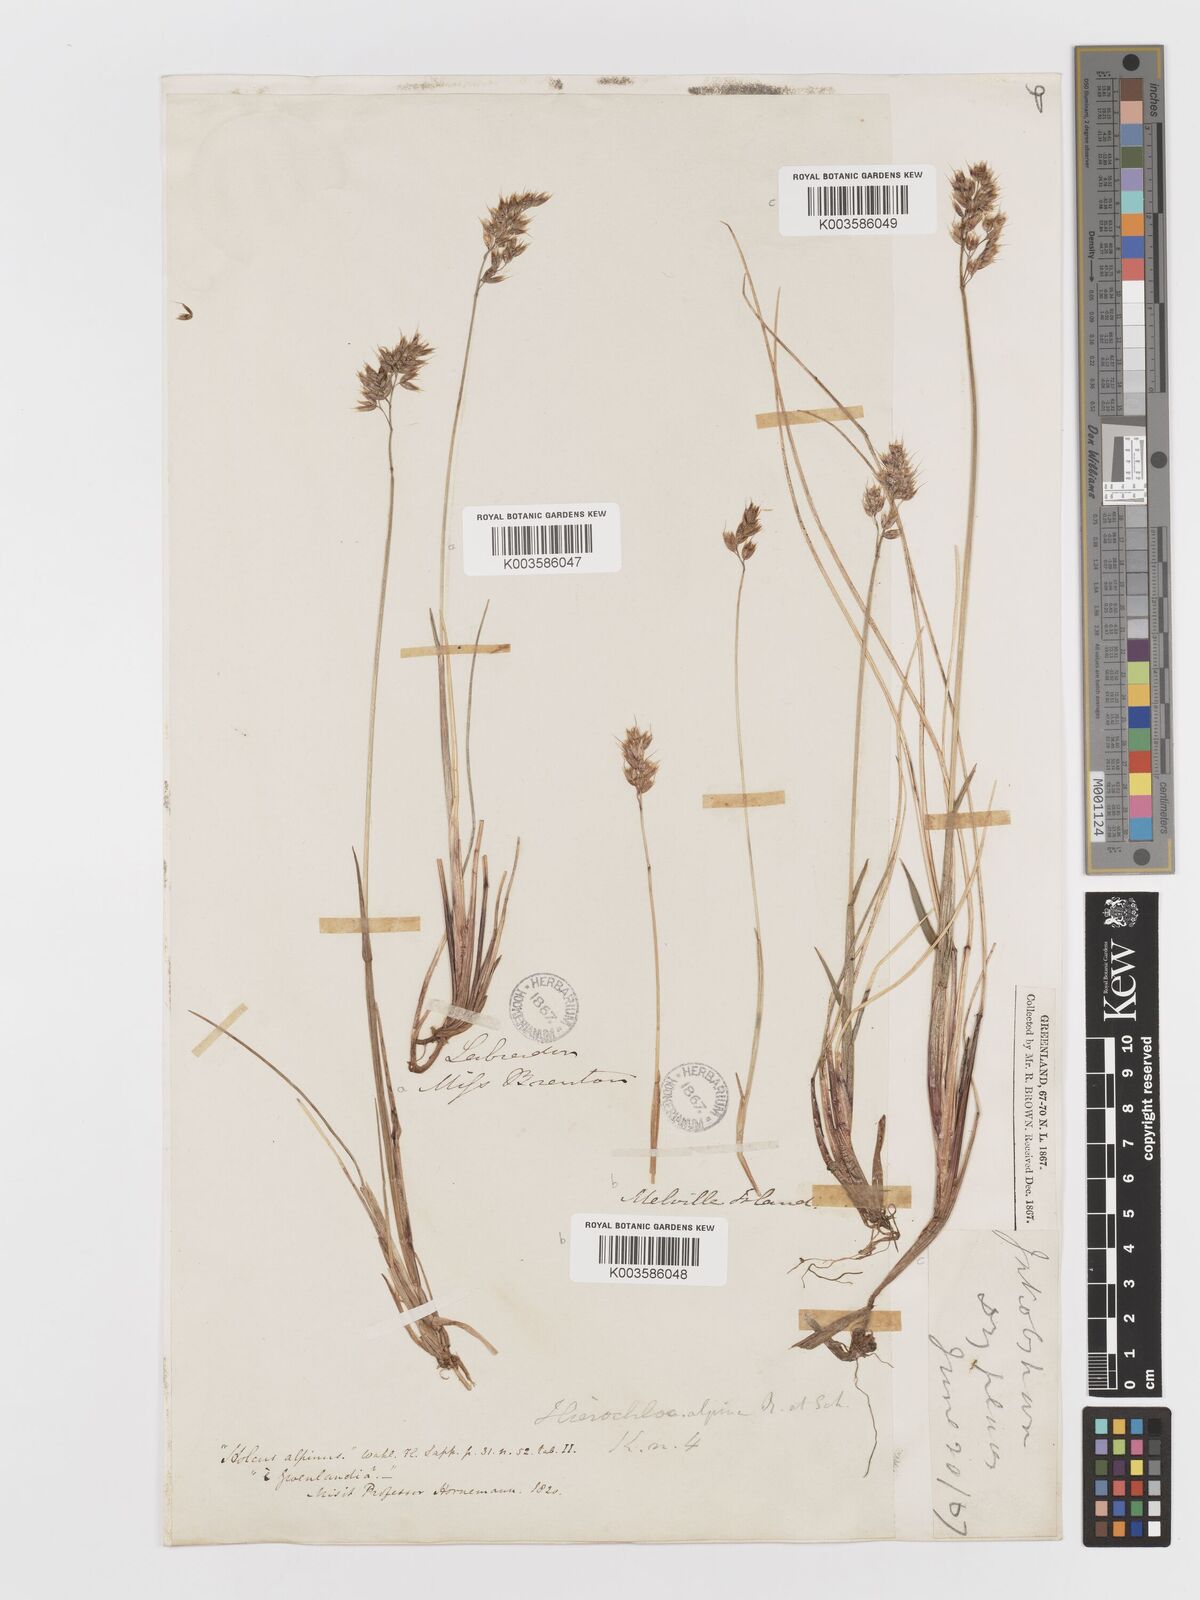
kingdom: Plantae
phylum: Tracheophyta
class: Liliopsida
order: Poales
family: Poaceae
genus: Anthoxanthum
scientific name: Anthoxanthum monticola
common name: Alpine sweetgrass
